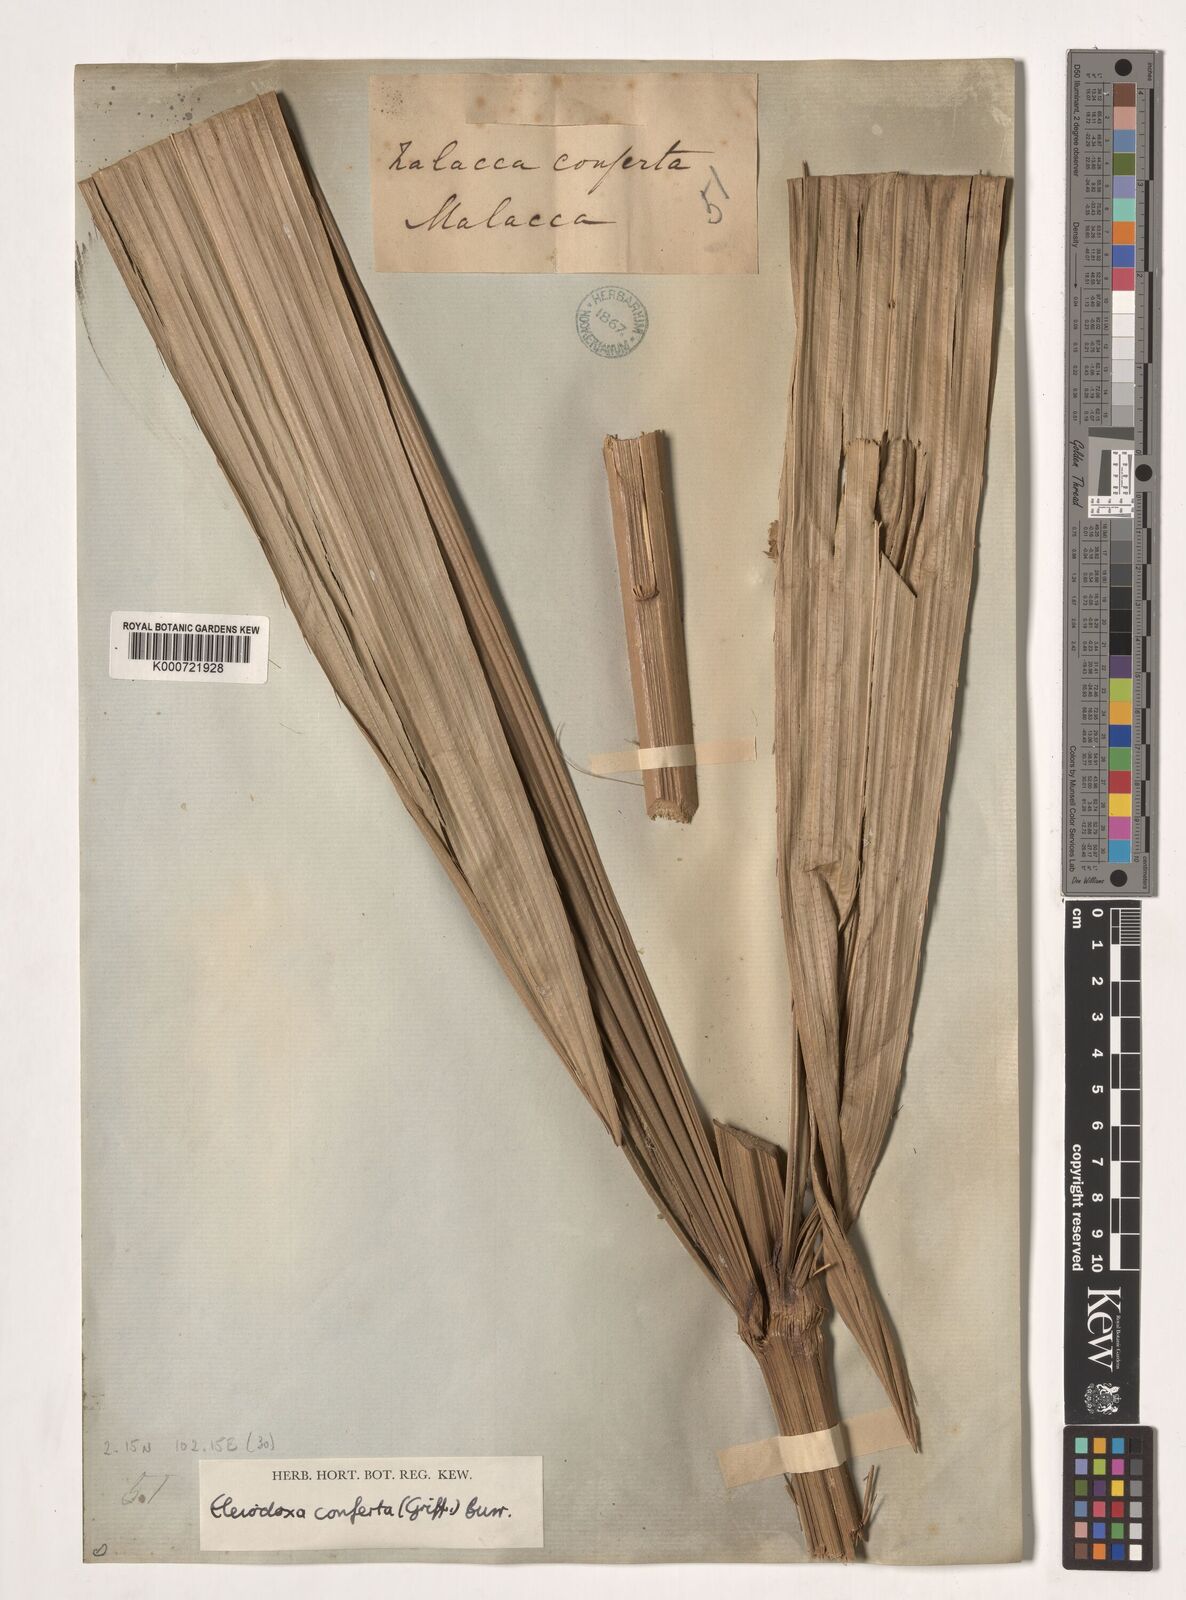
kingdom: Plantae
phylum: Tracheophyta
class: Liliopsida
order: Arecales
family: Arecaceae
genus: Eleiodoxa
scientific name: Eleiodoxa conferta
